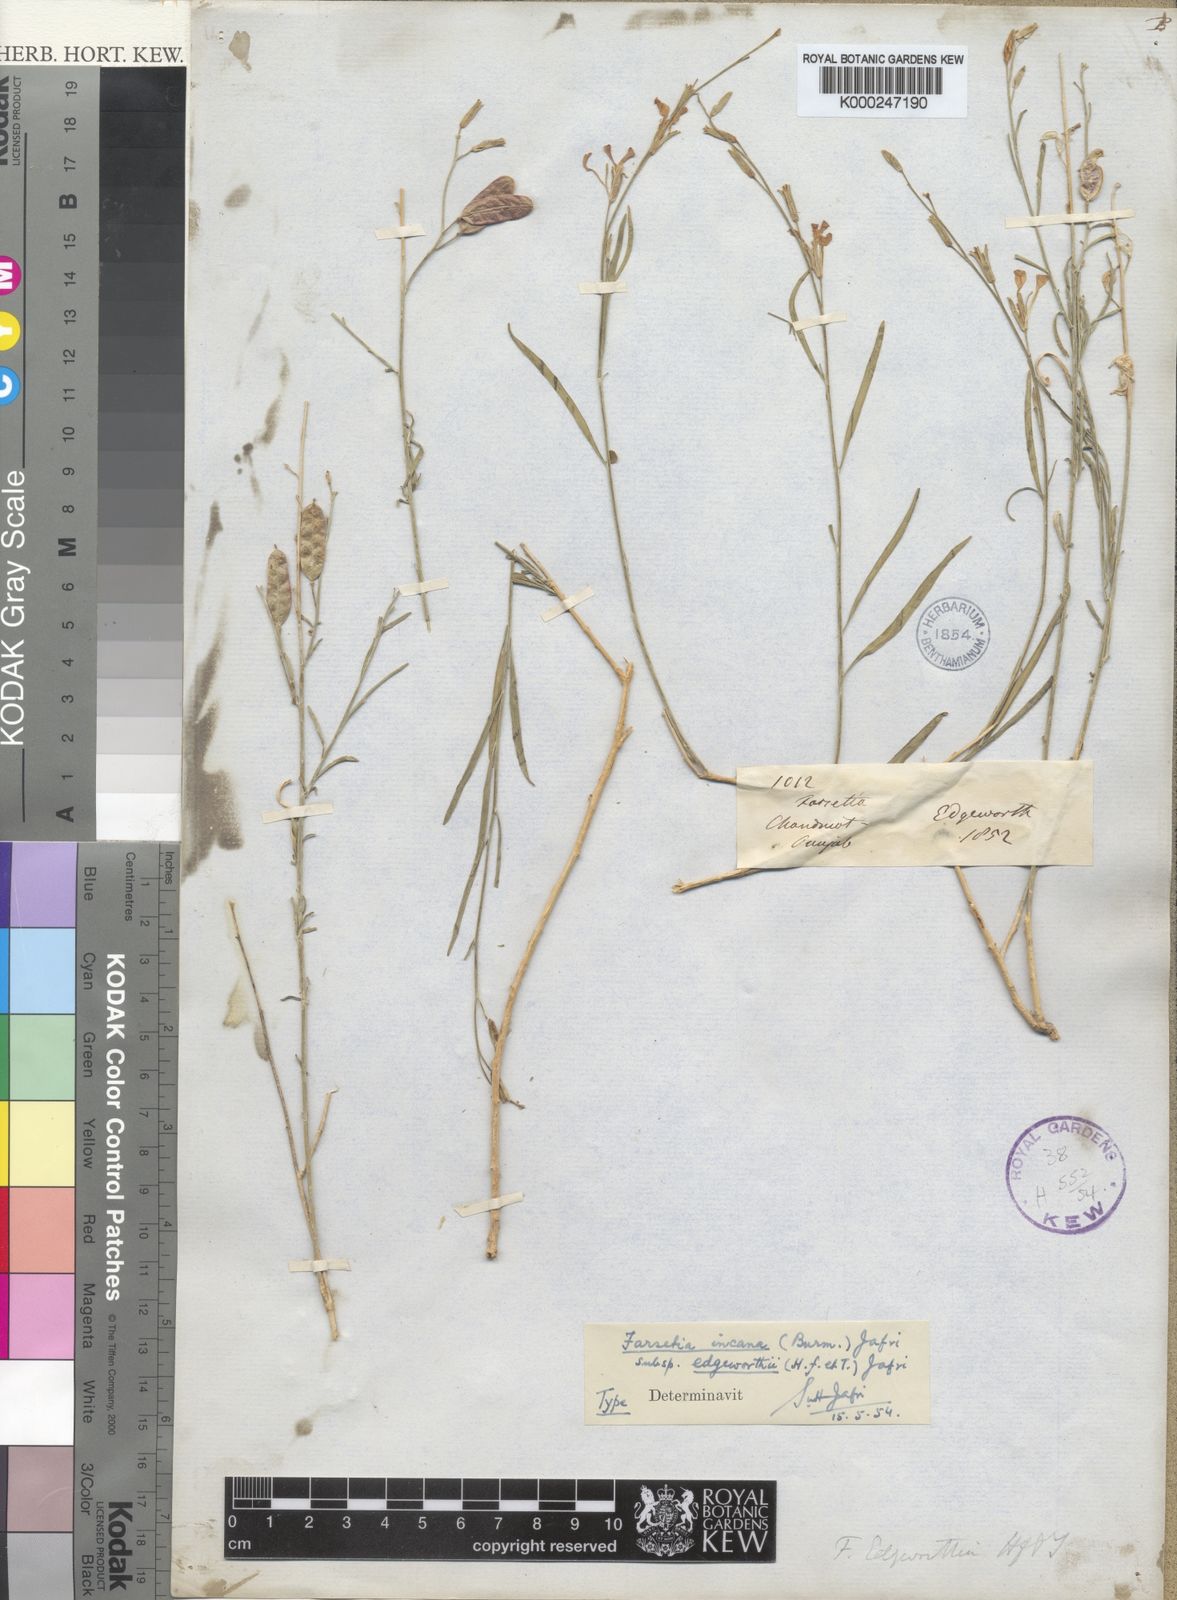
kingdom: Plantae
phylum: Tracheophyta
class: Magnoliopsida
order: Brassicales
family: Brassicaceae
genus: Farsetia
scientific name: Farsetia jacquemontii
